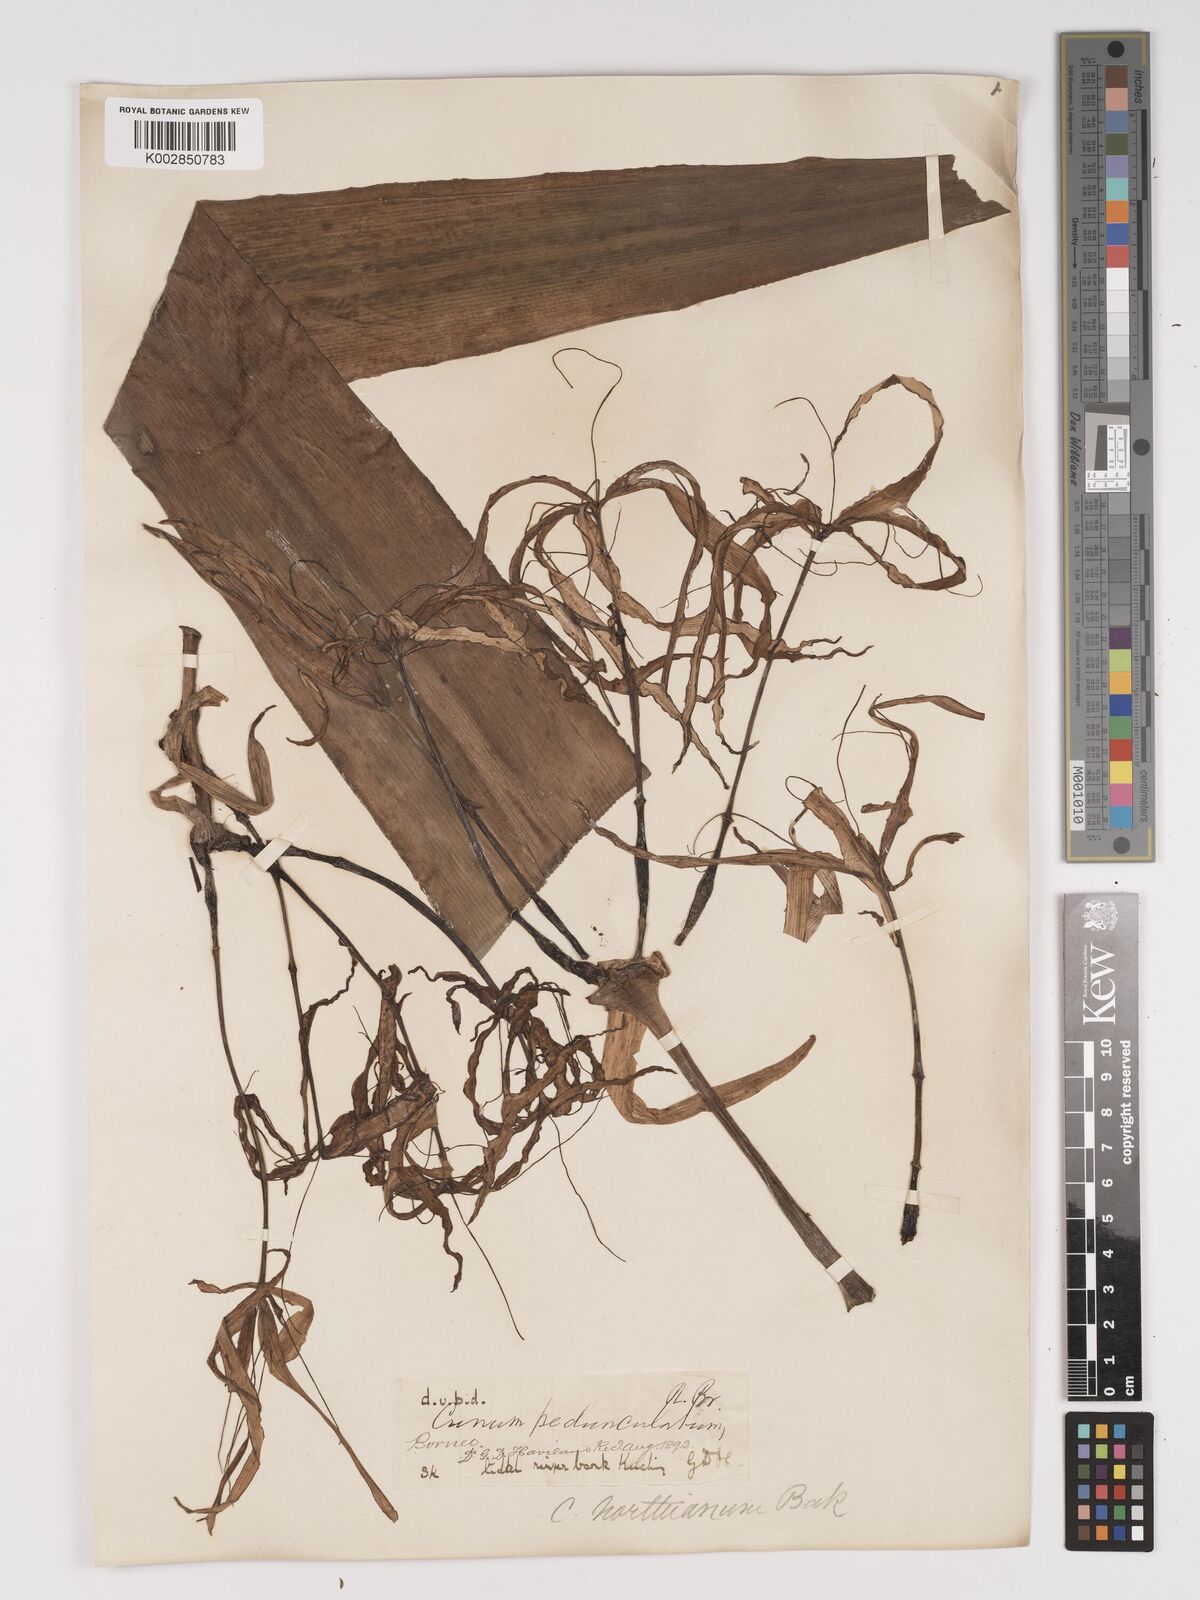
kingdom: Plantae
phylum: Tracheophyta
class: Liliopsida
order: Asparagales
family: Amaryllidaceae
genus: Crinum
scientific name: Crinum asiaticum
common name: Poisonbulb
